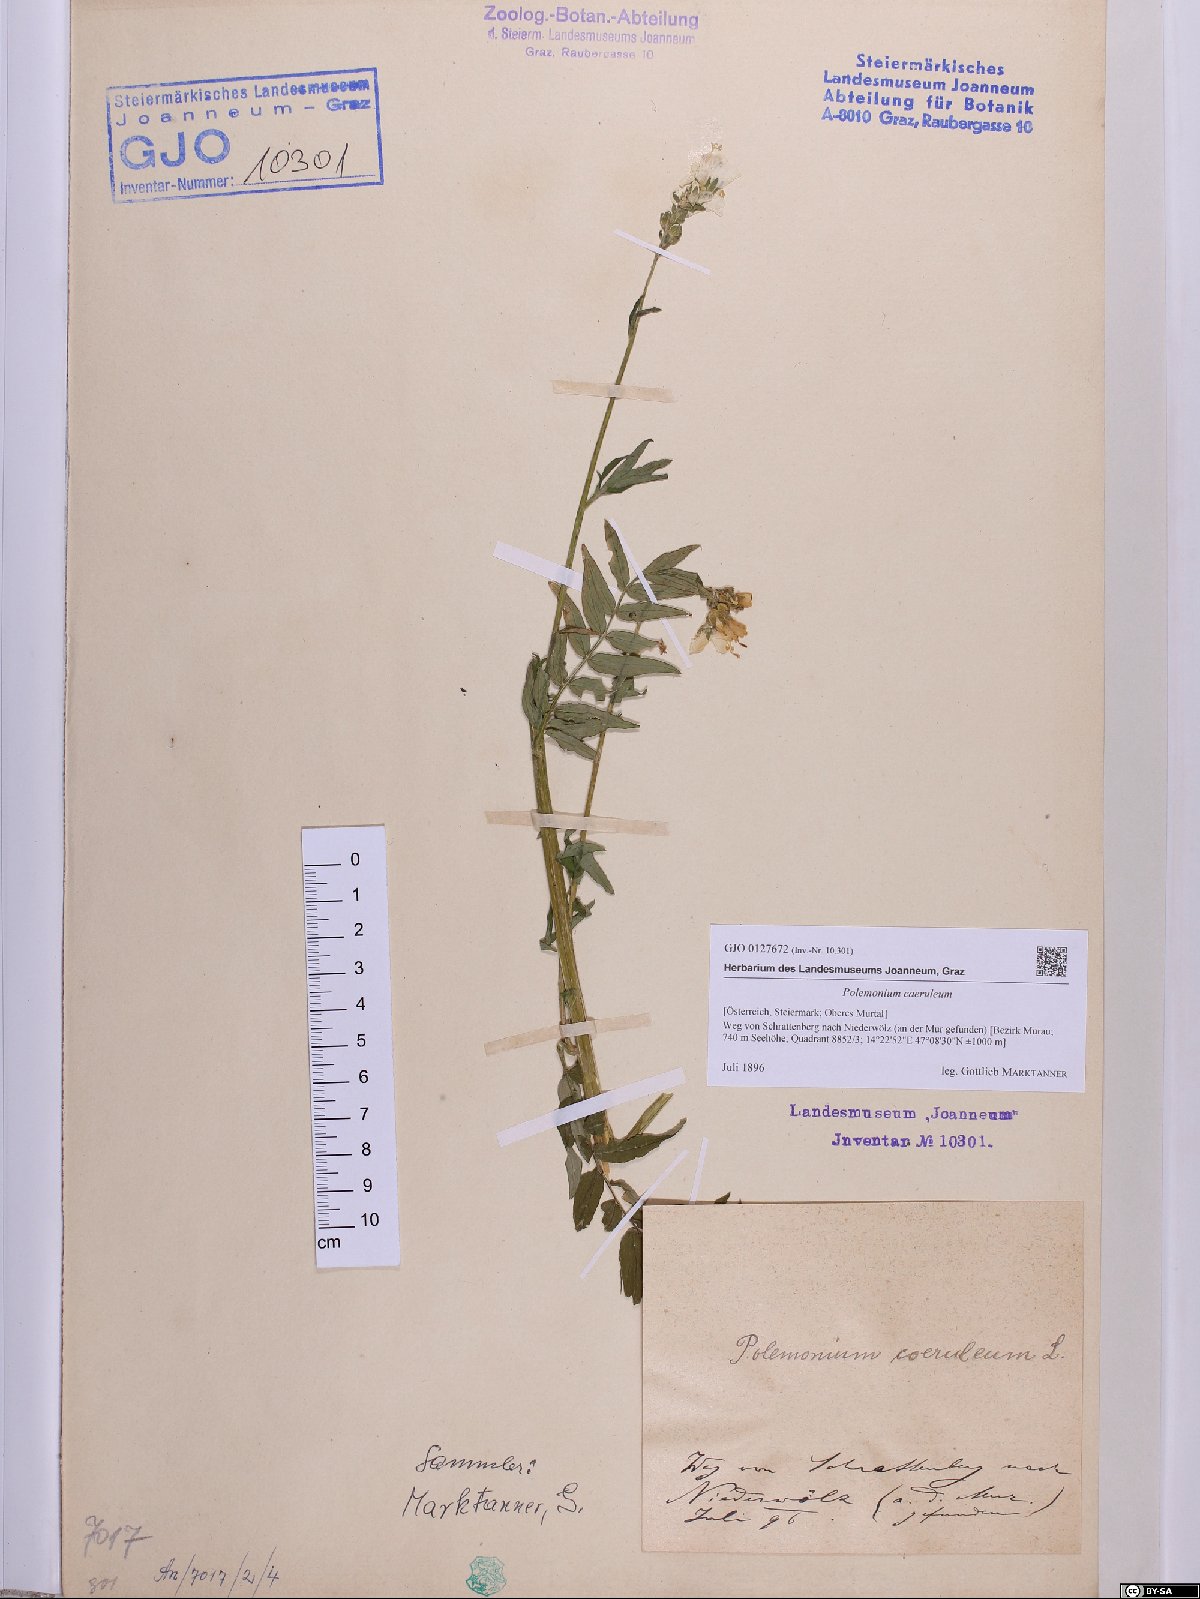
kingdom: Plantae
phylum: Tracheophyta
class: Magnoliopsida
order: Ericales
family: Polemoniaceae
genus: Polemonium
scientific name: Polemonium caeruleum
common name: Jacob's-ladder
